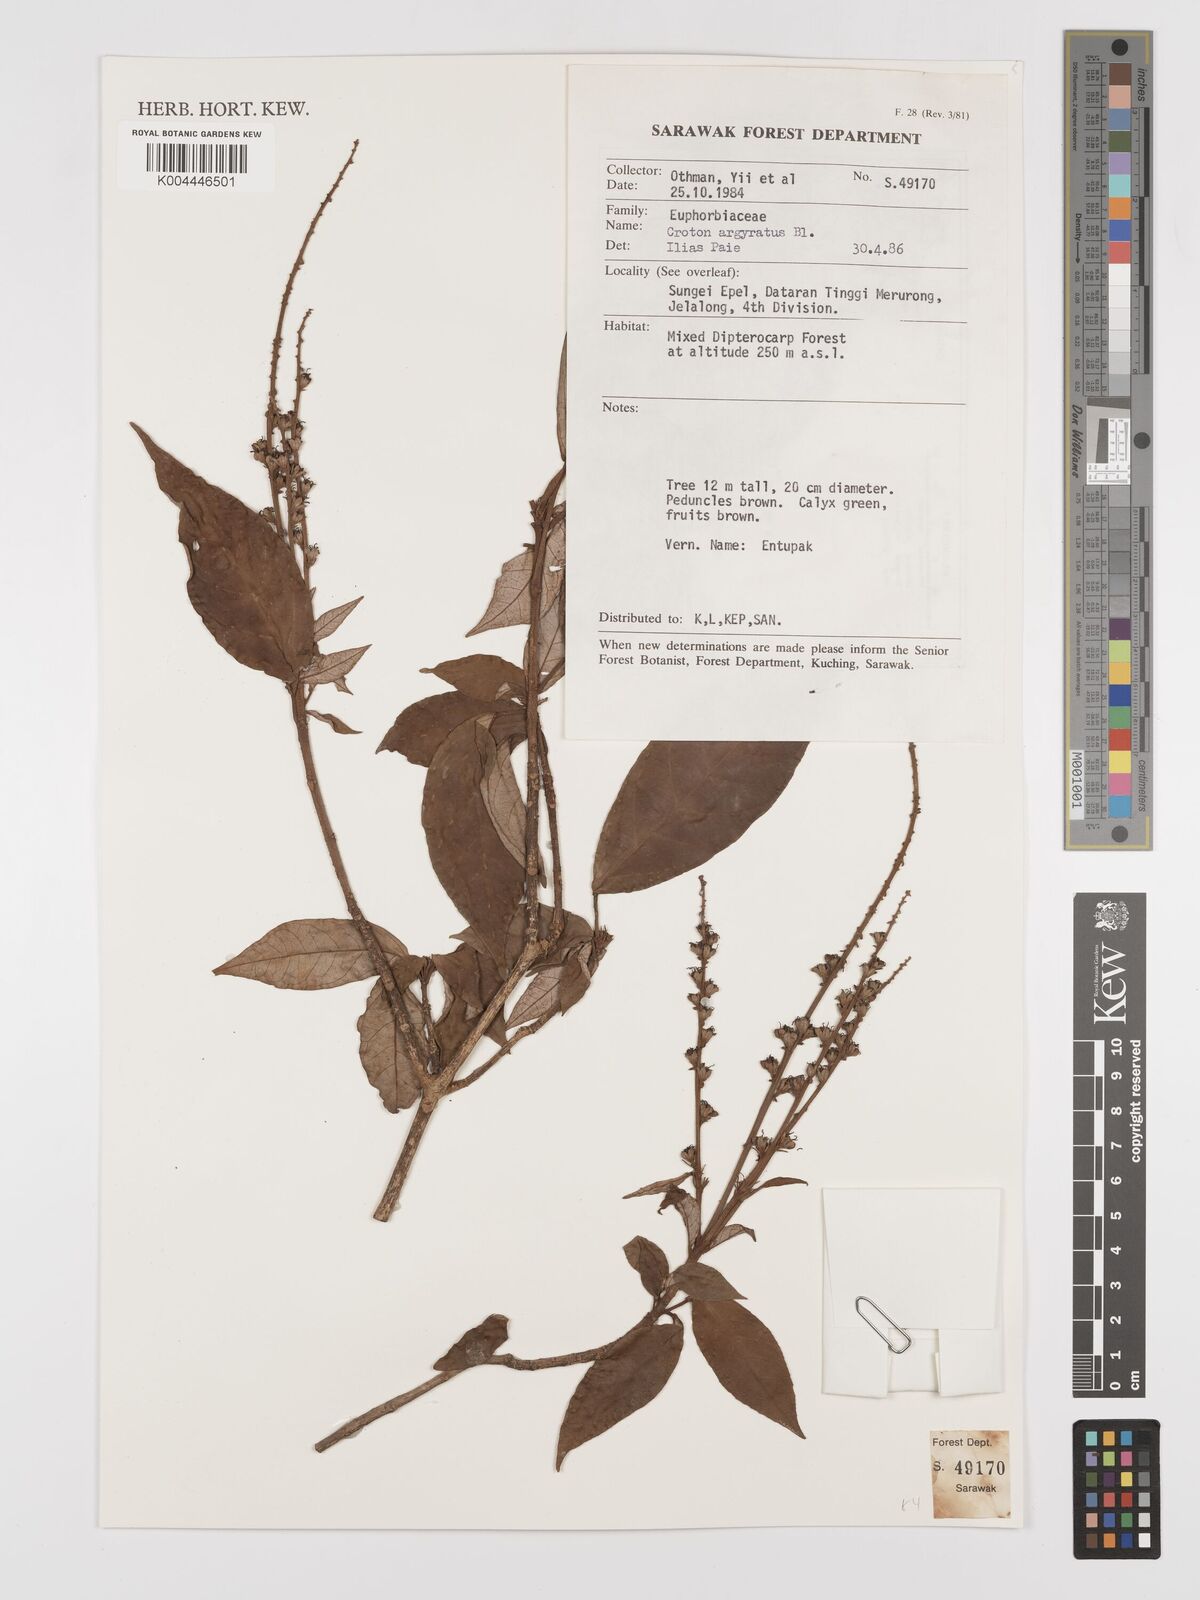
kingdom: Plantae
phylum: Tracheophyta
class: Magnoliopsida
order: Malpighiales
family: Euphorbiaceae
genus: Croton
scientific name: Croton argyratus
